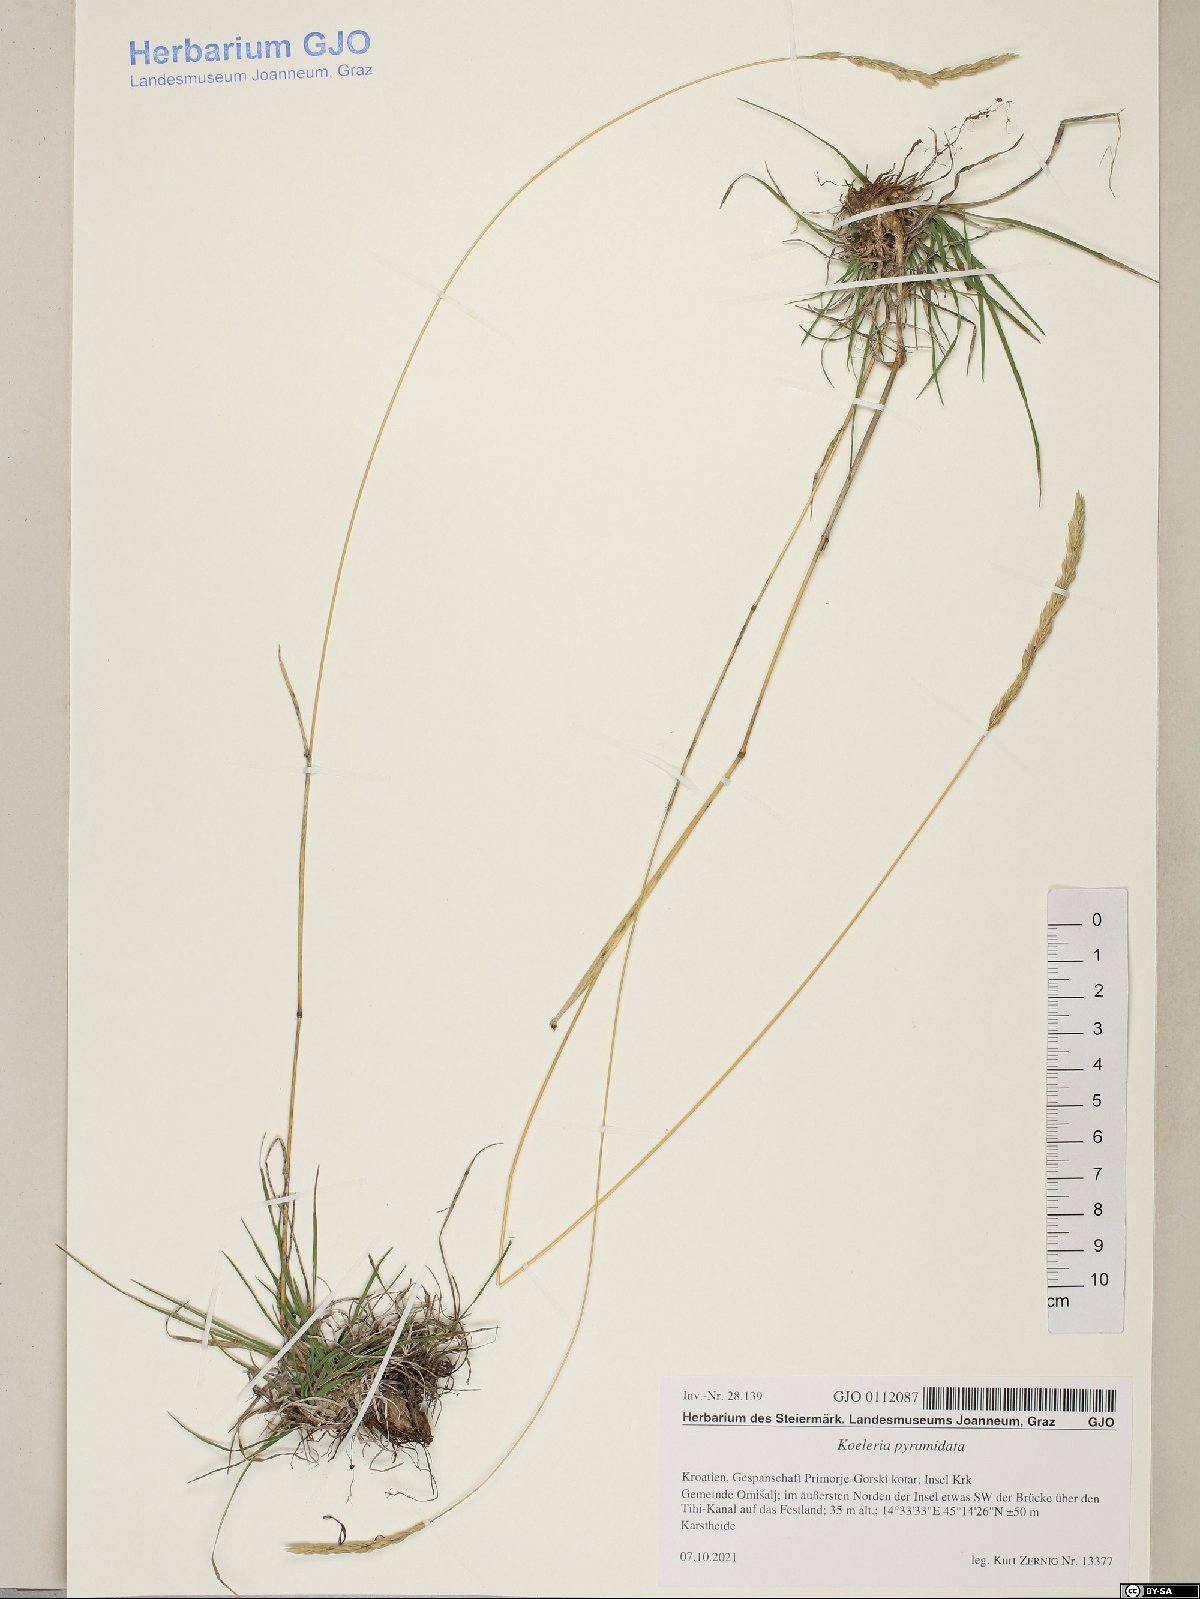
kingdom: Plantae
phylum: Tracheophyta
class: Liliopsida
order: Poales
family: Poaceae
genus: Koeleria
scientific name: Koeleria pyramidata
